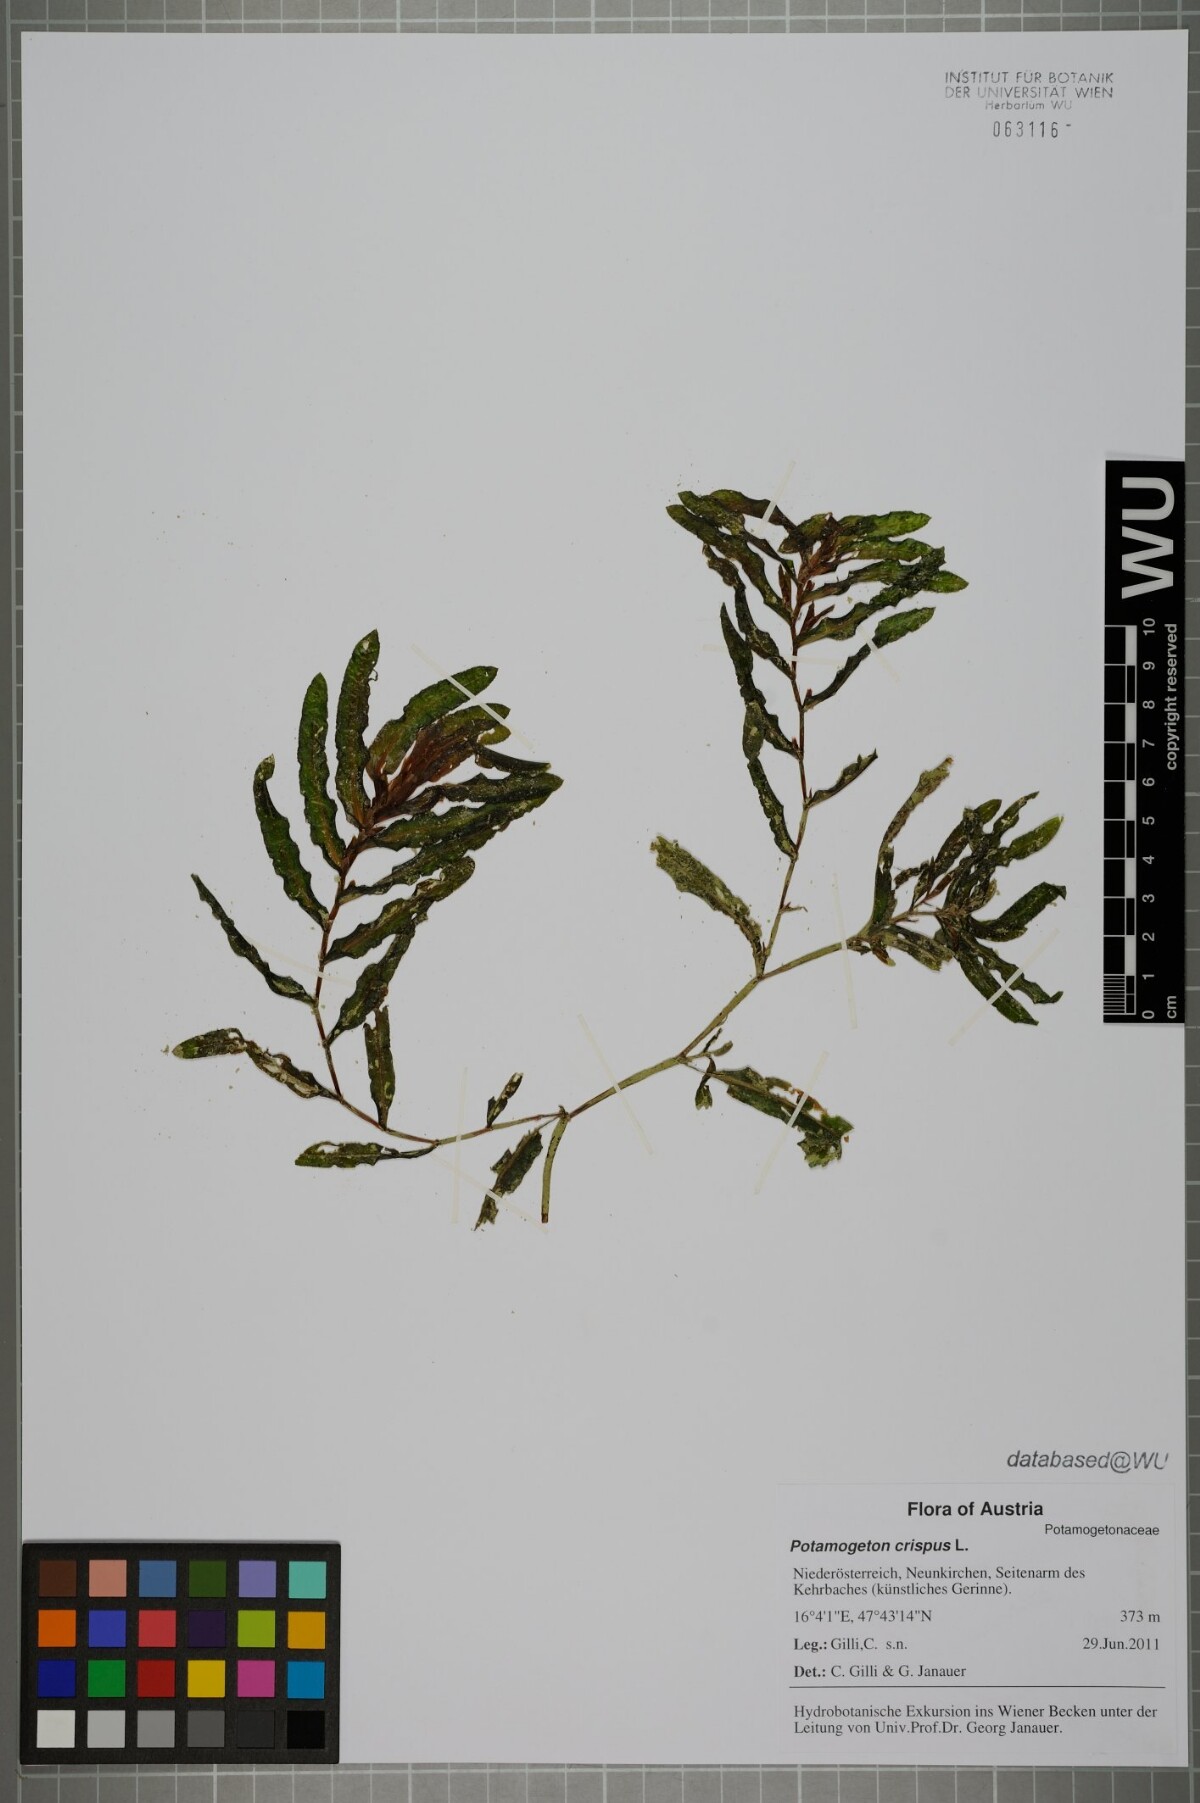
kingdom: Plantae
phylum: Tracheophyta
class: Liliopsida
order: Alismatales
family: Potamogetonaceae
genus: Potamogeton
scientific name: Potamogeton crispus
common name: Curled pondweed
